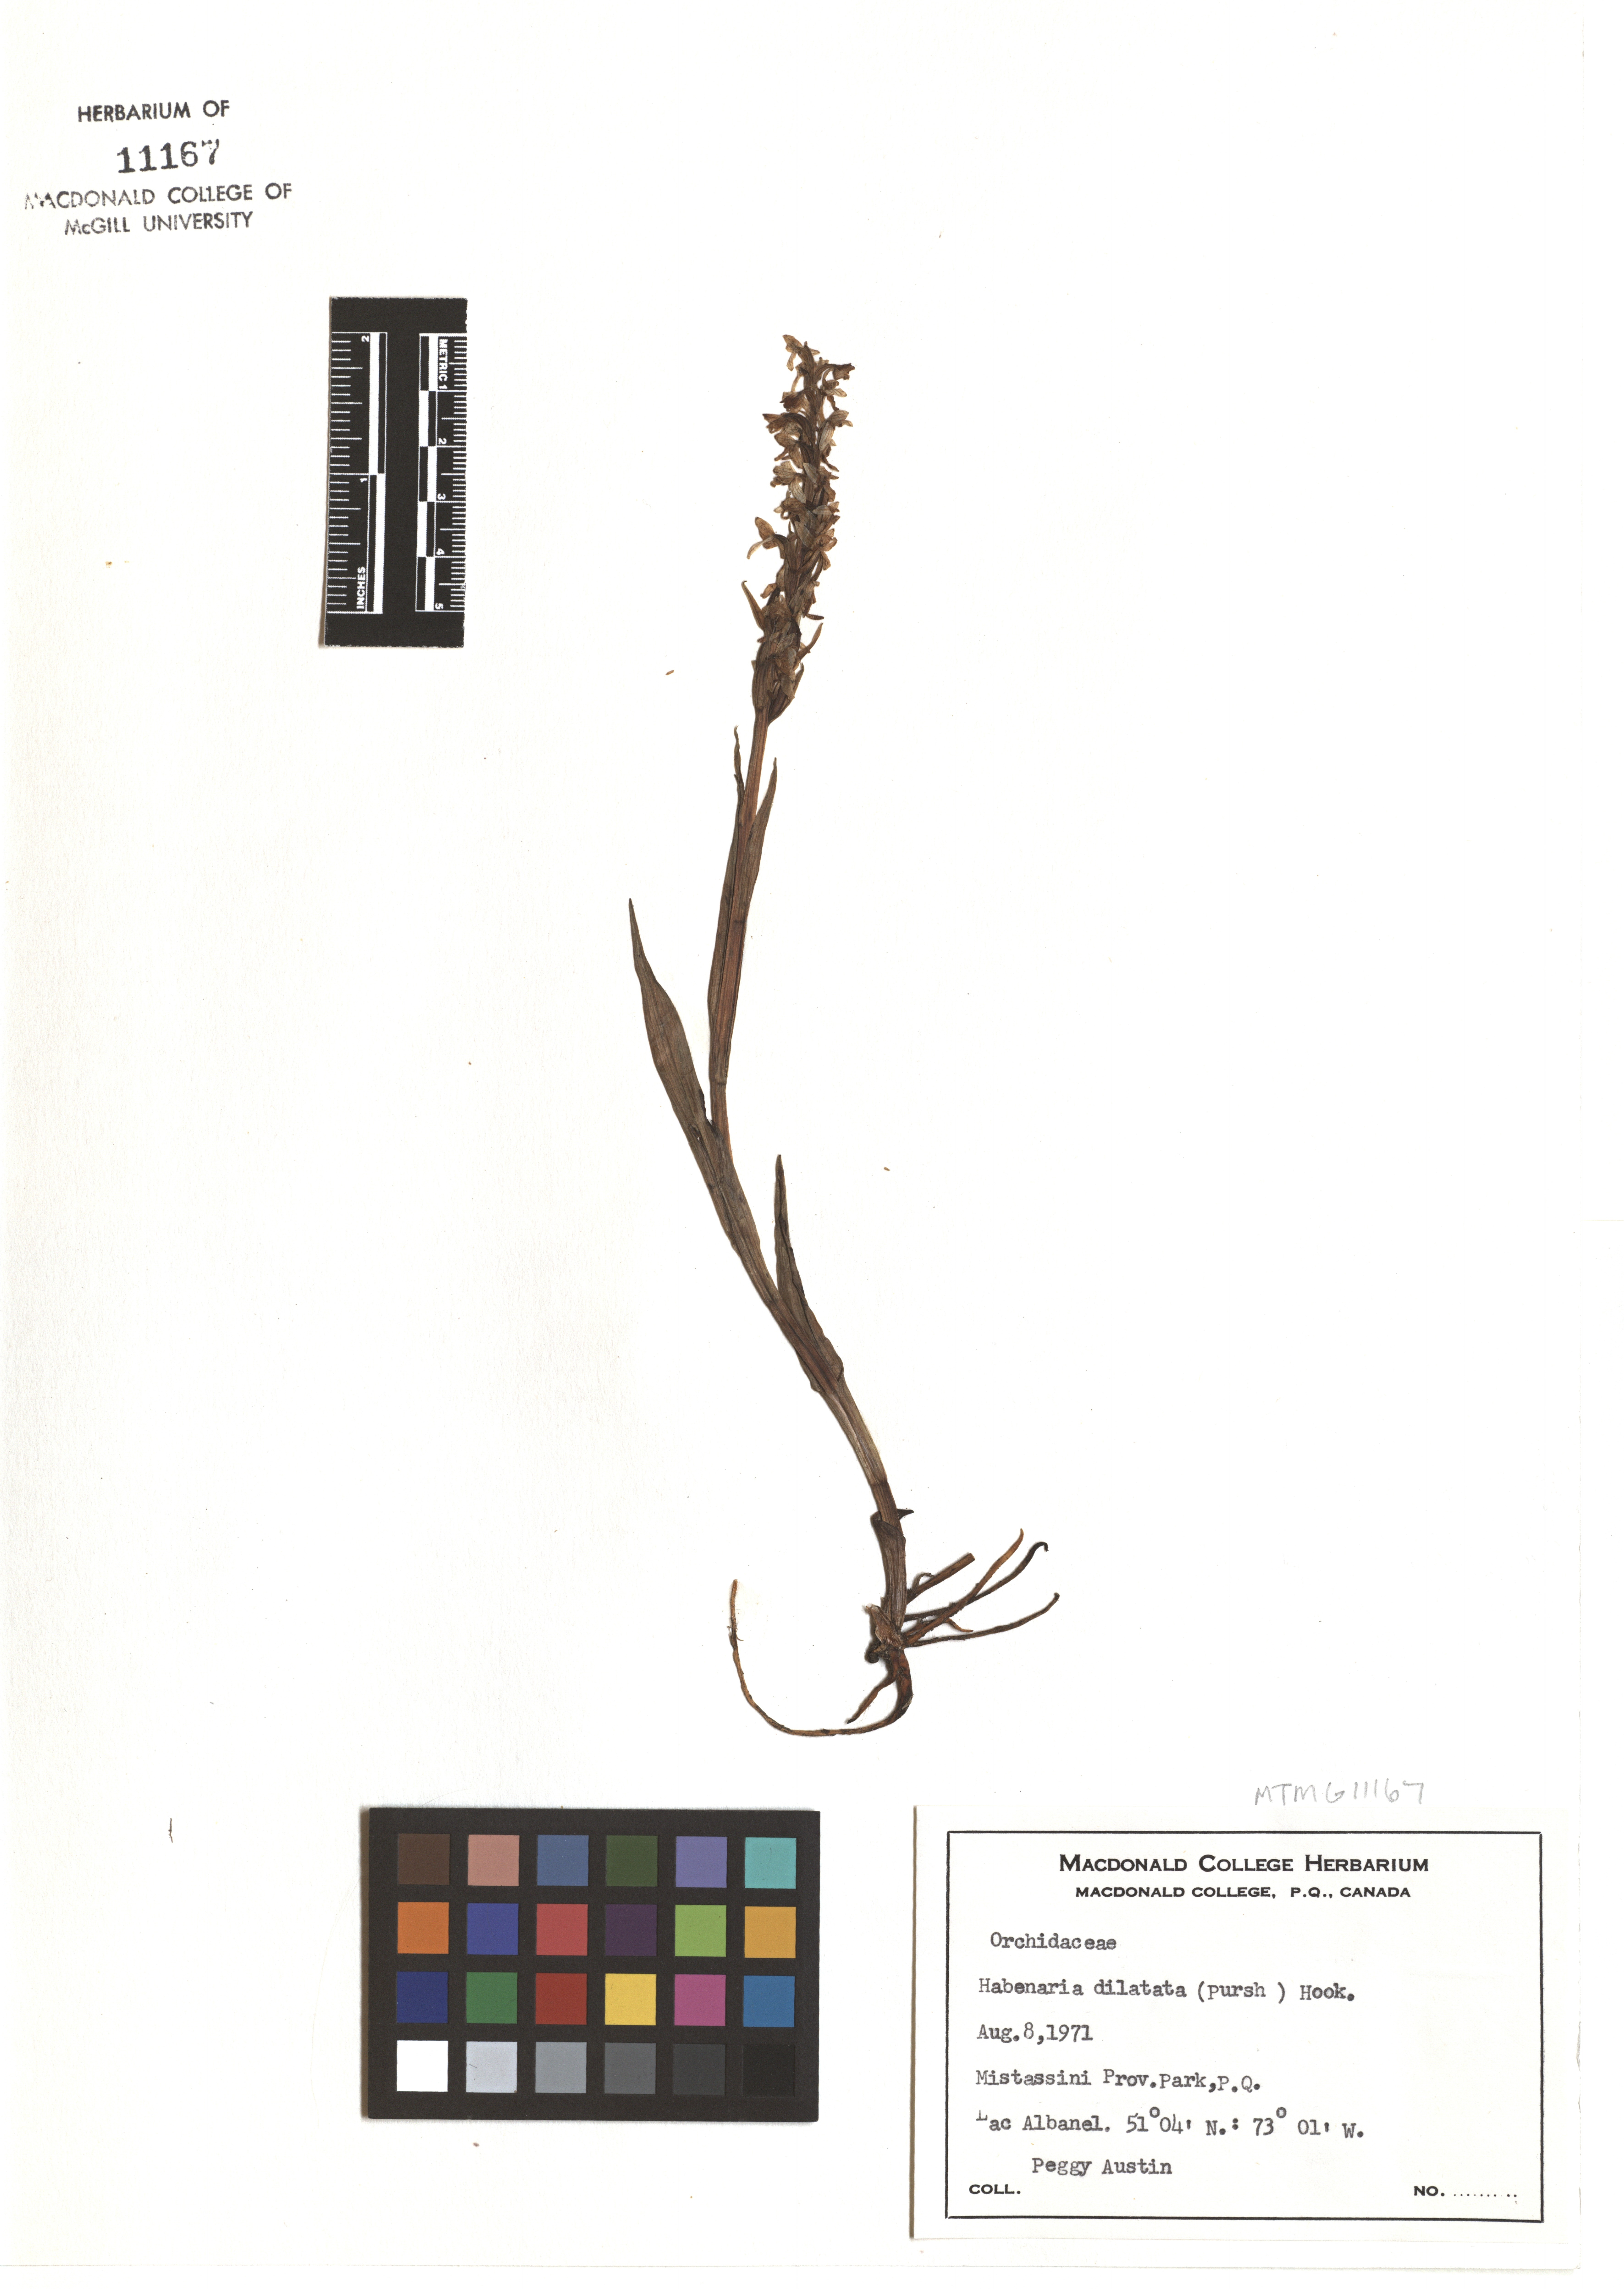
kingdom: Plantae
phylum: Tracheophyta
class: Liliopsida
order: Asparagales
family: Orchidaceae
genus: Platanthera
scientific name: Platanthera dilatata
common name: Bog candles
